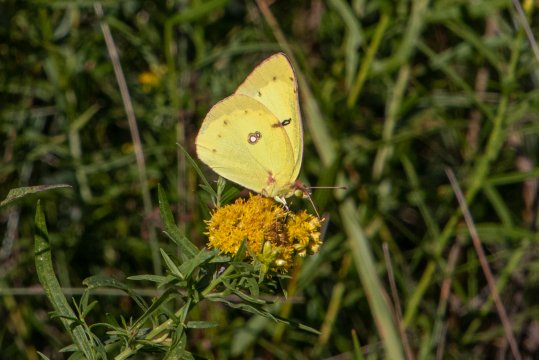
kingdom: Animalia
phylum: Arthropoda
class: Insecta
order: Lepidoptera
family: Pieridae
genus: Colias
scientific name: Colias philodice
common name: Clouded Sulphur
